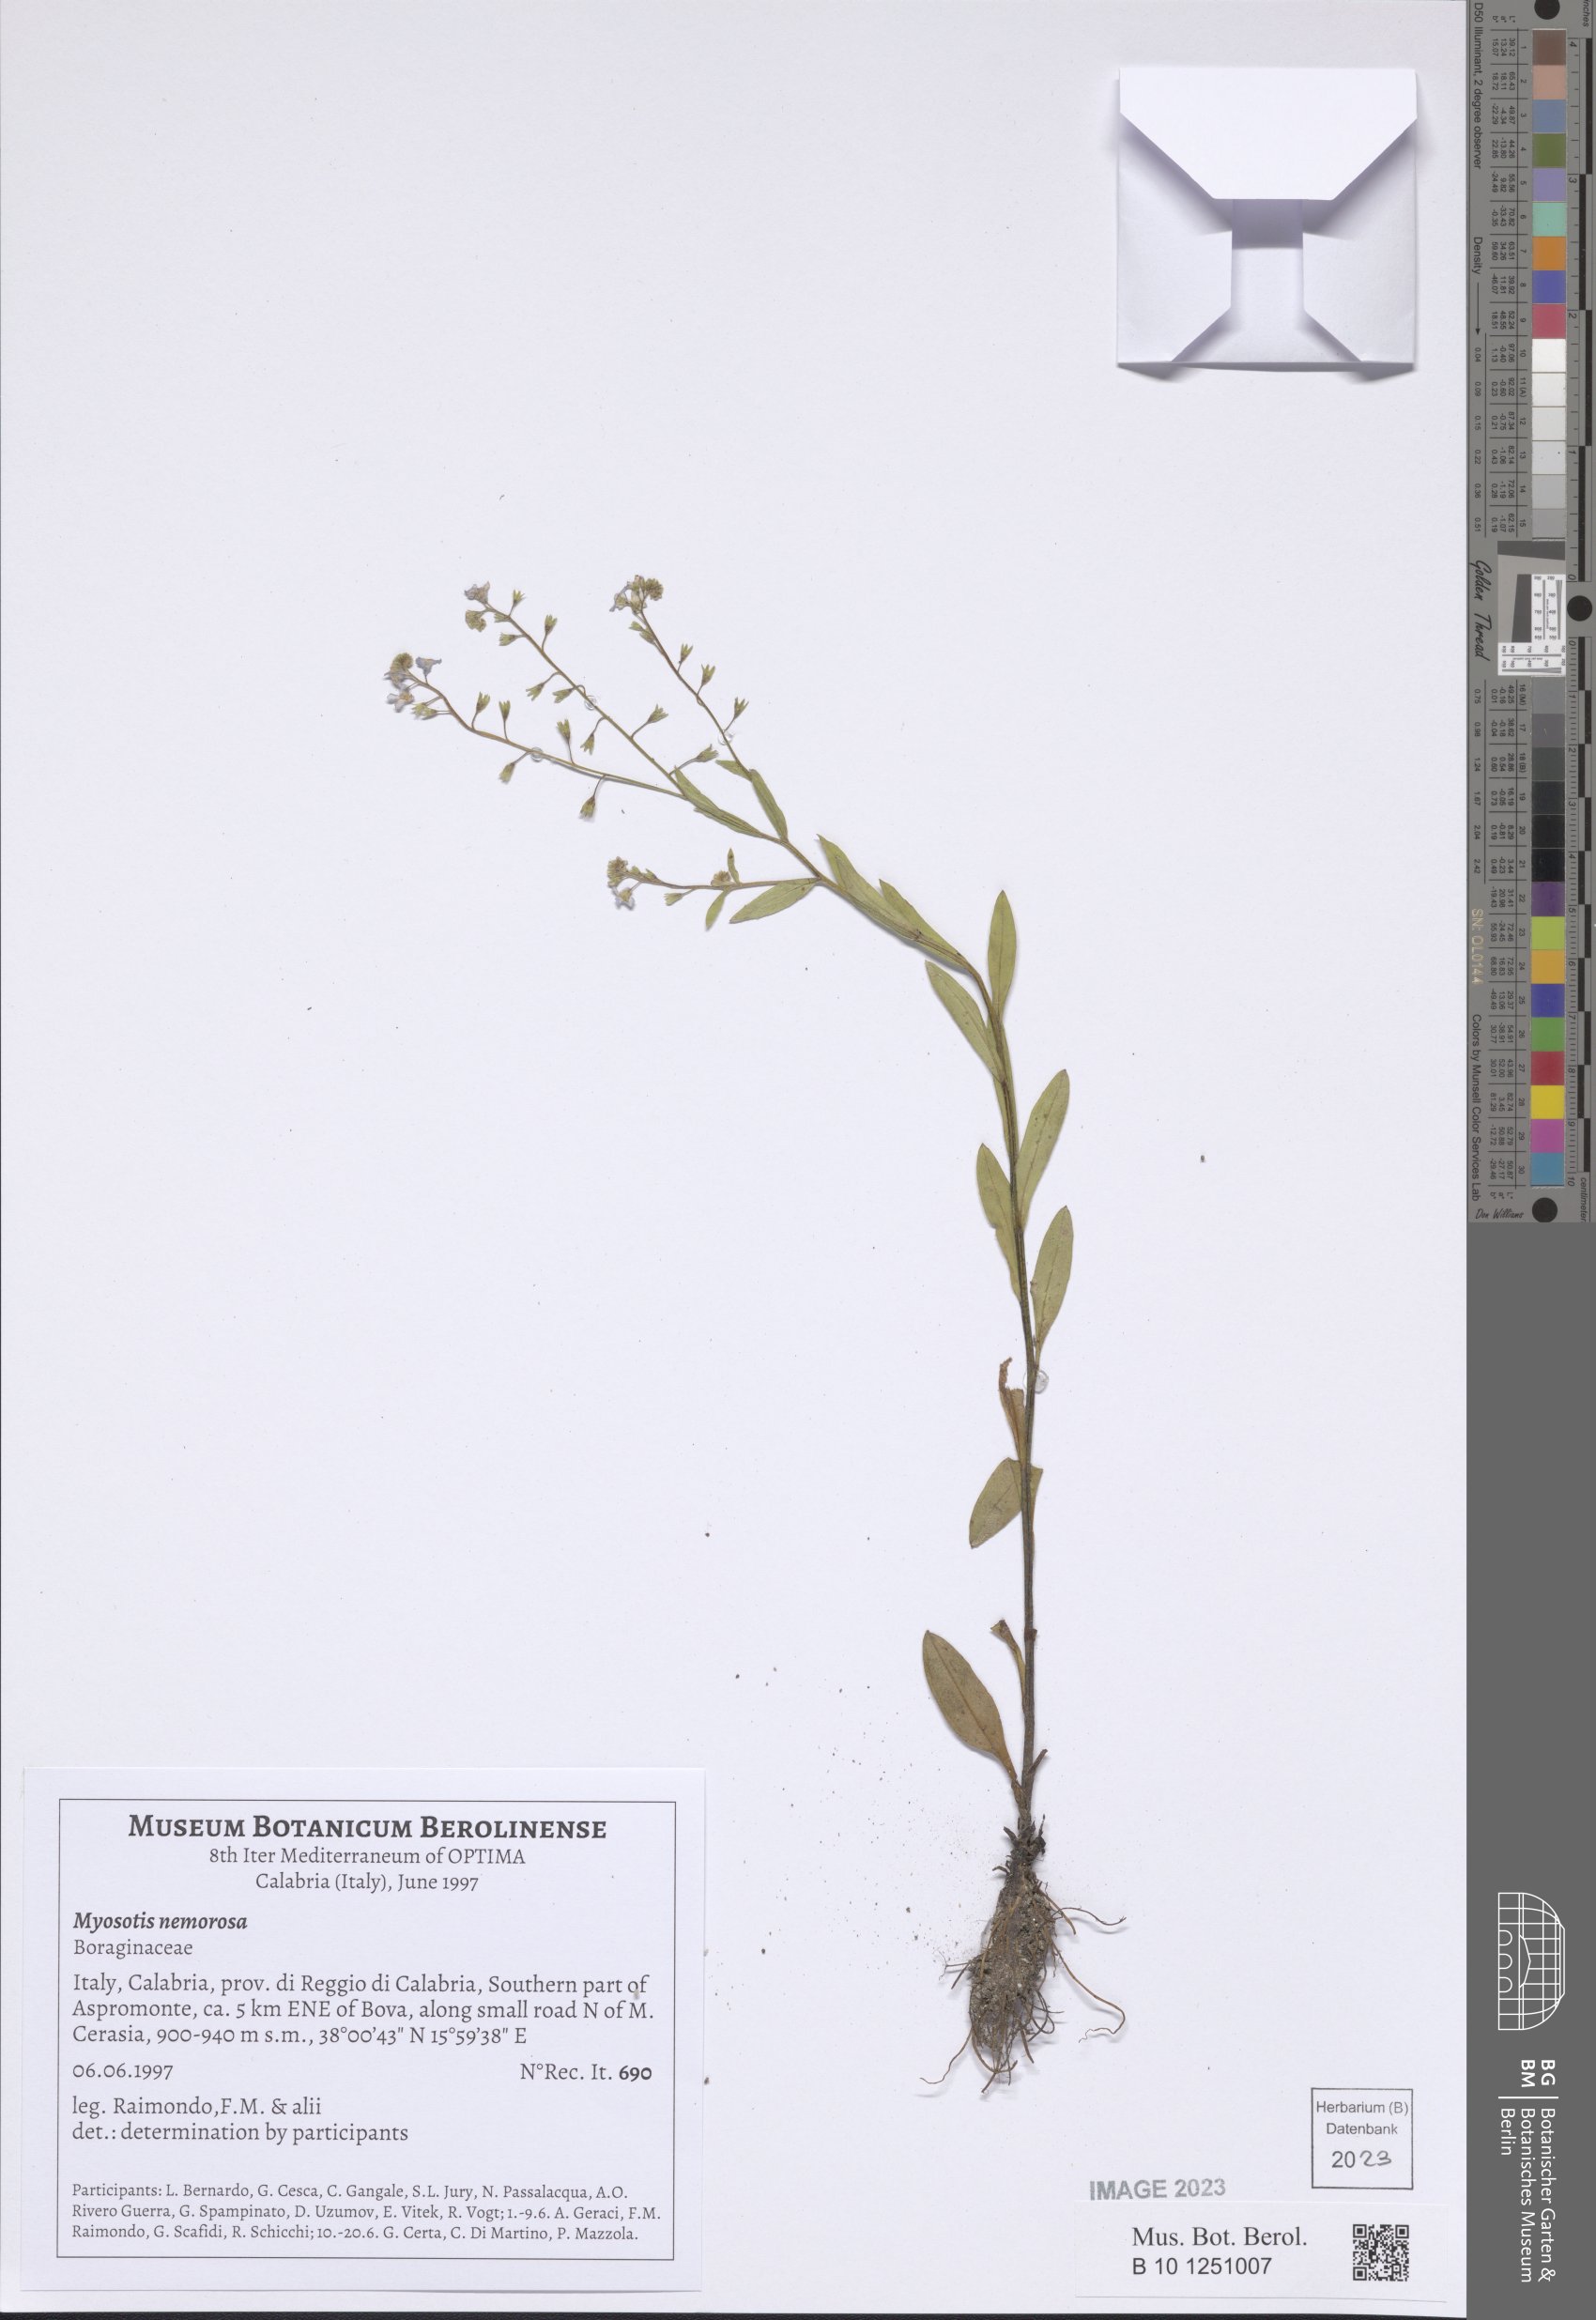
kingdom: Plantae
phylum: Tracheophyta
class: Magnoliopsida
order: Boraginales
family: Boraginaceae
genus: Myosotis
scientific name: Myosotis nemorosa
